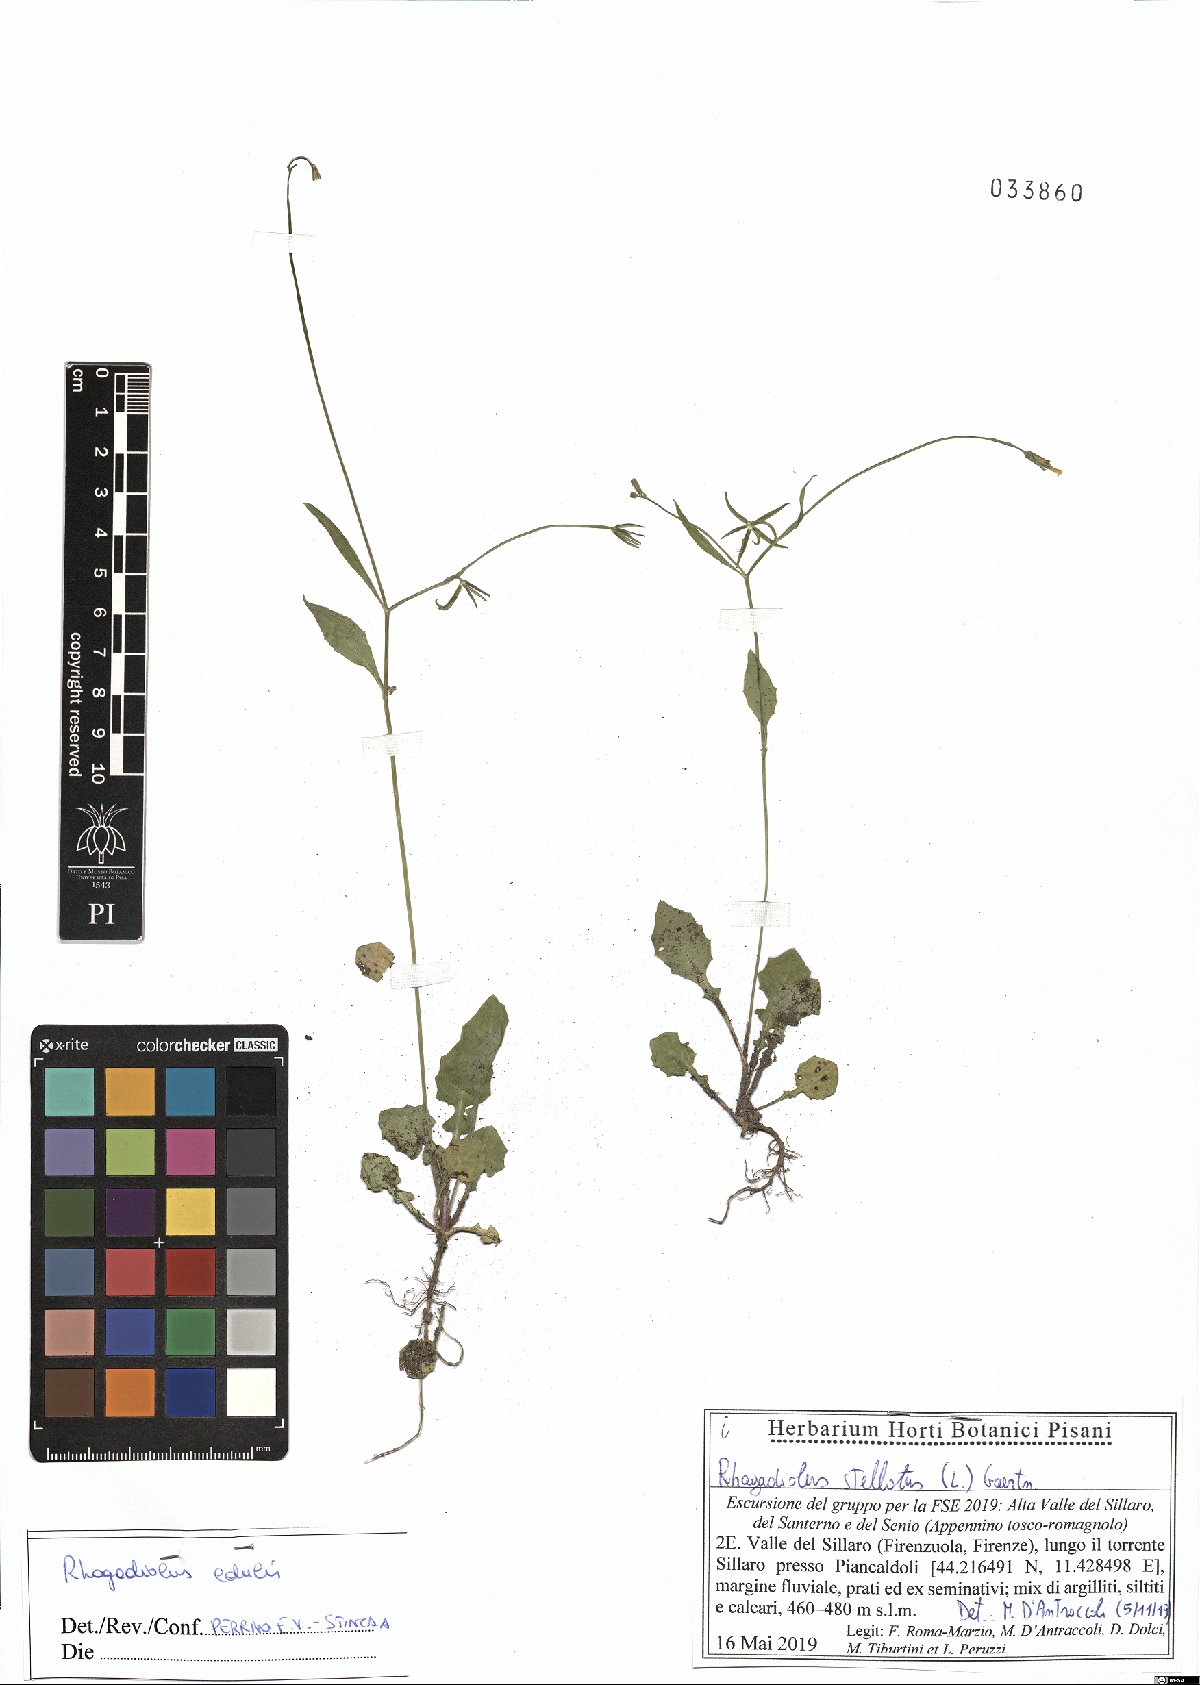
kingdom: Plantae
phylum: Tracheophyta
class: Magnoliopsida
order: Asterales
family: Asteraceae
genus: Rhagadiolus
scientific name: Rhagadiolus edulis
